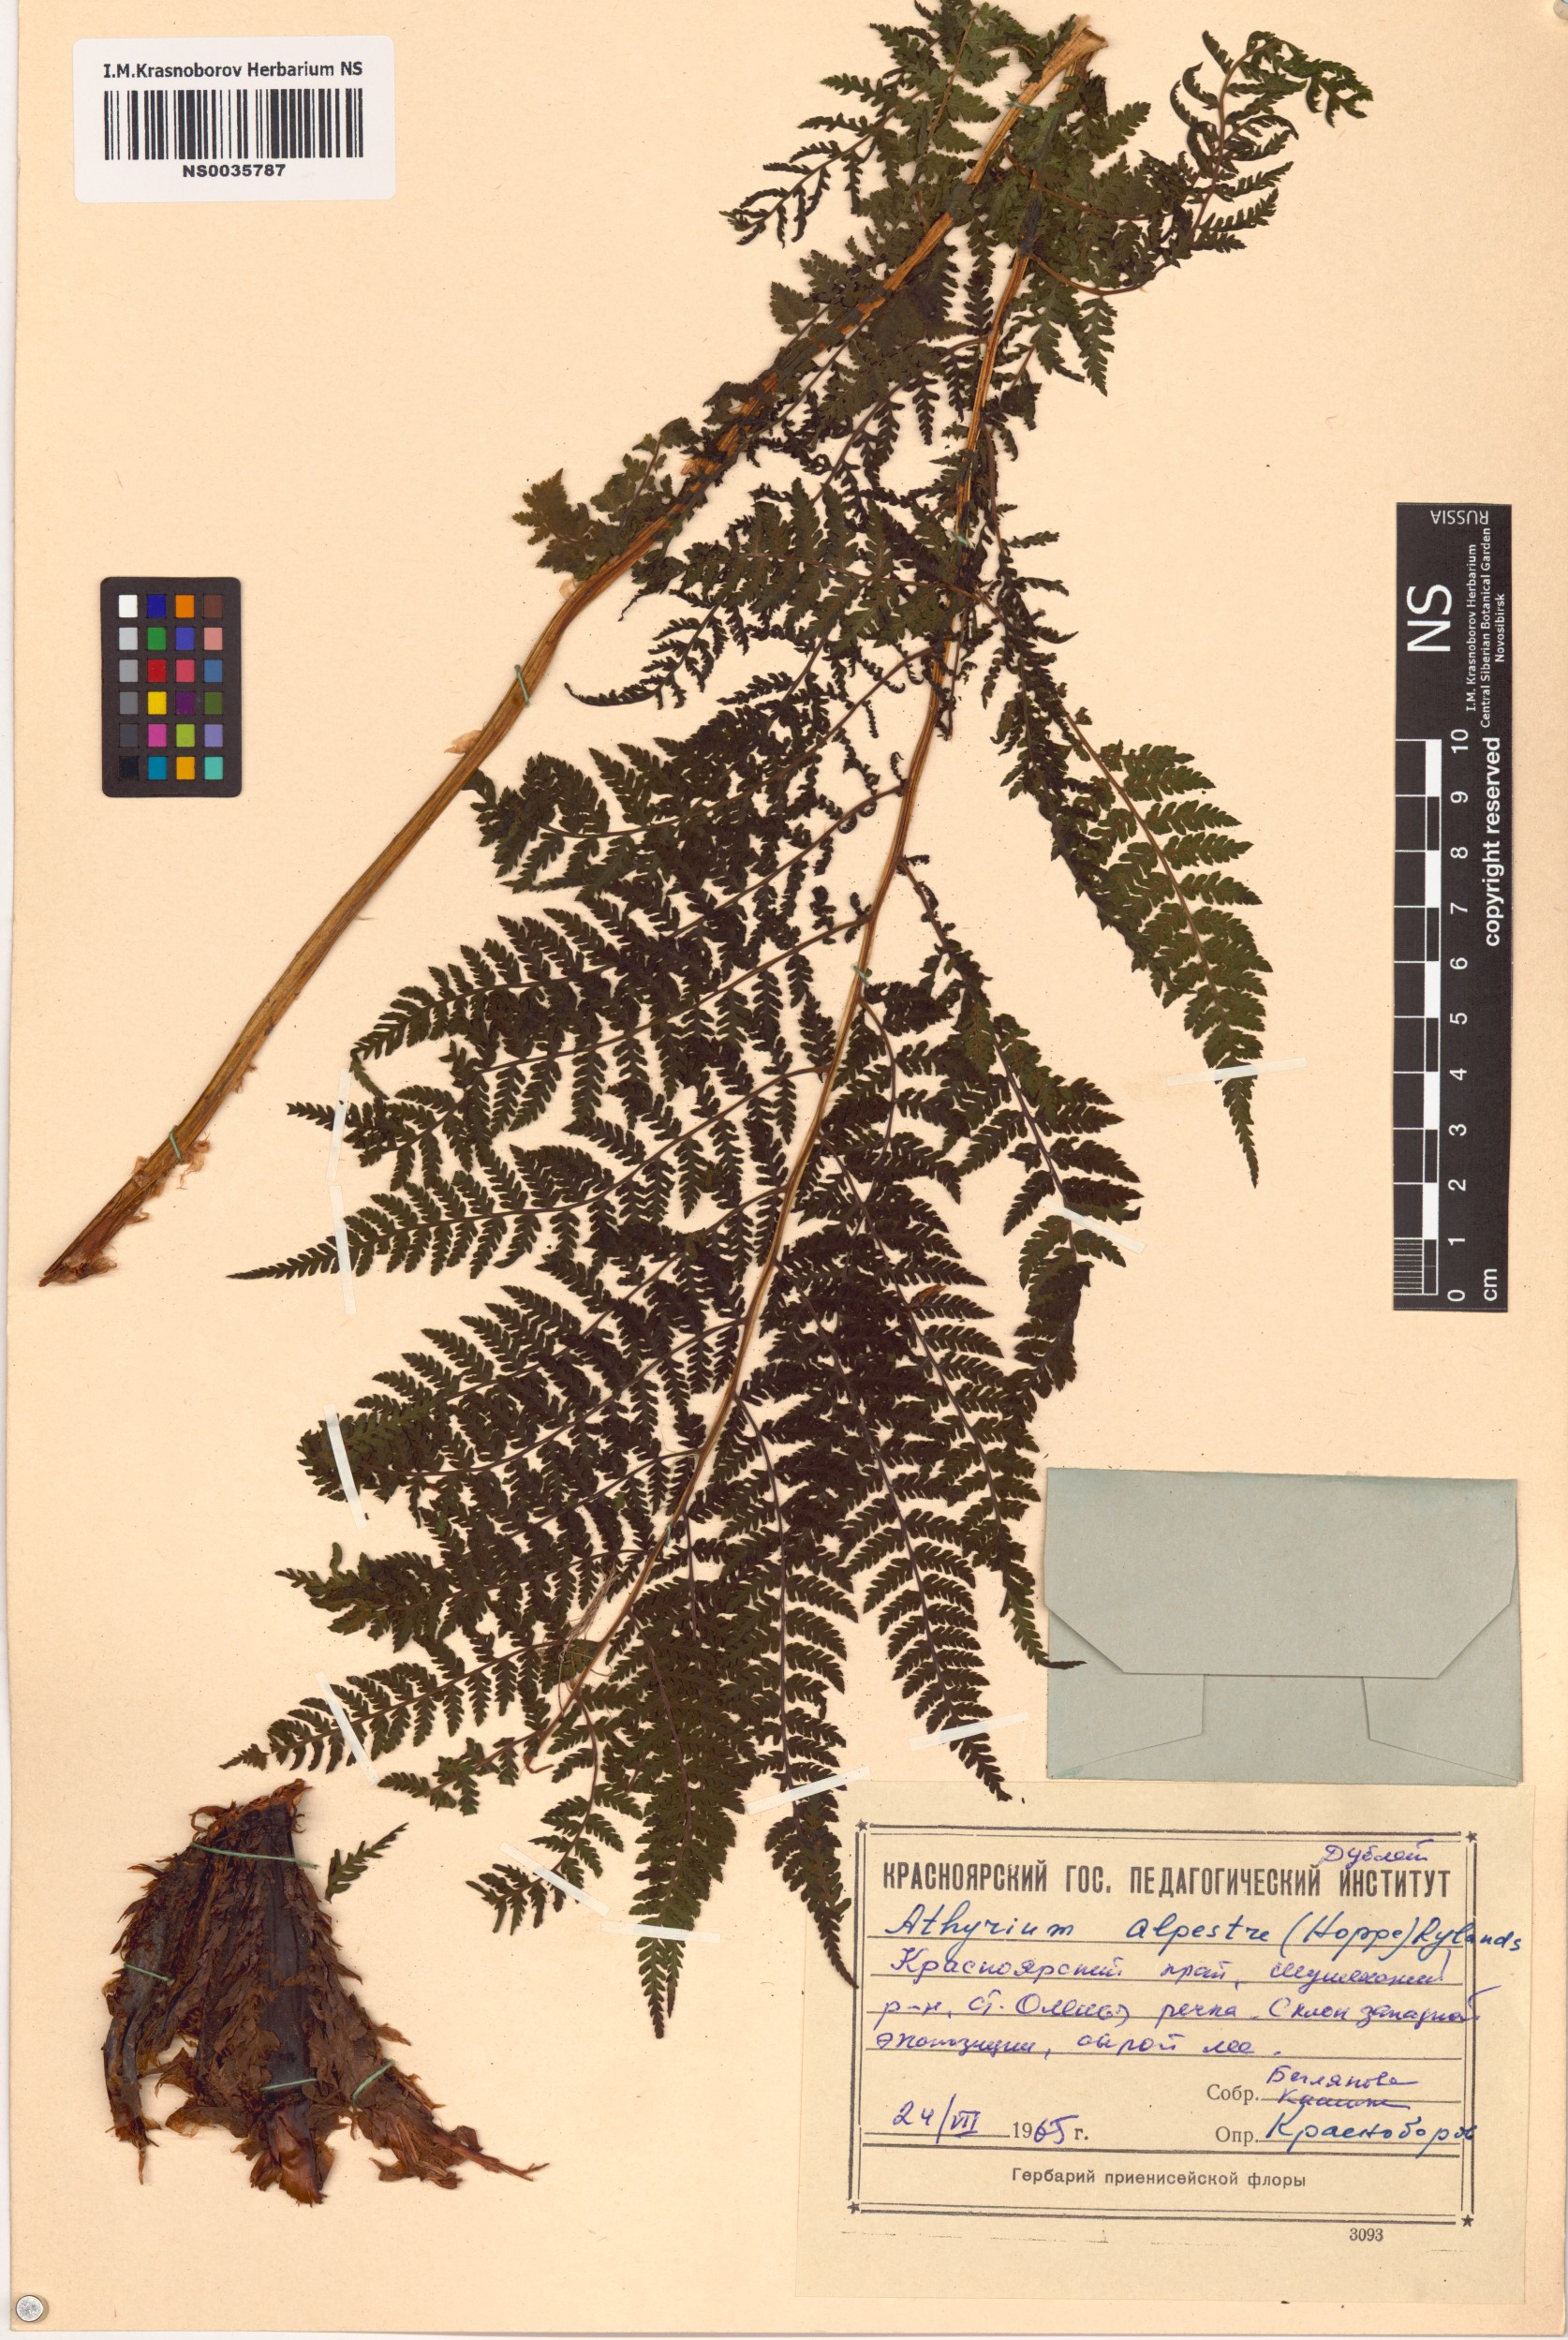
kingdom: Plantae
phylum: Tracheophyta
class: Polypodiopsida
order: Polypodiales
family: Athyriaceae
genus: Pseudathyrium
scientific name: Pseudathyrium alpestre
